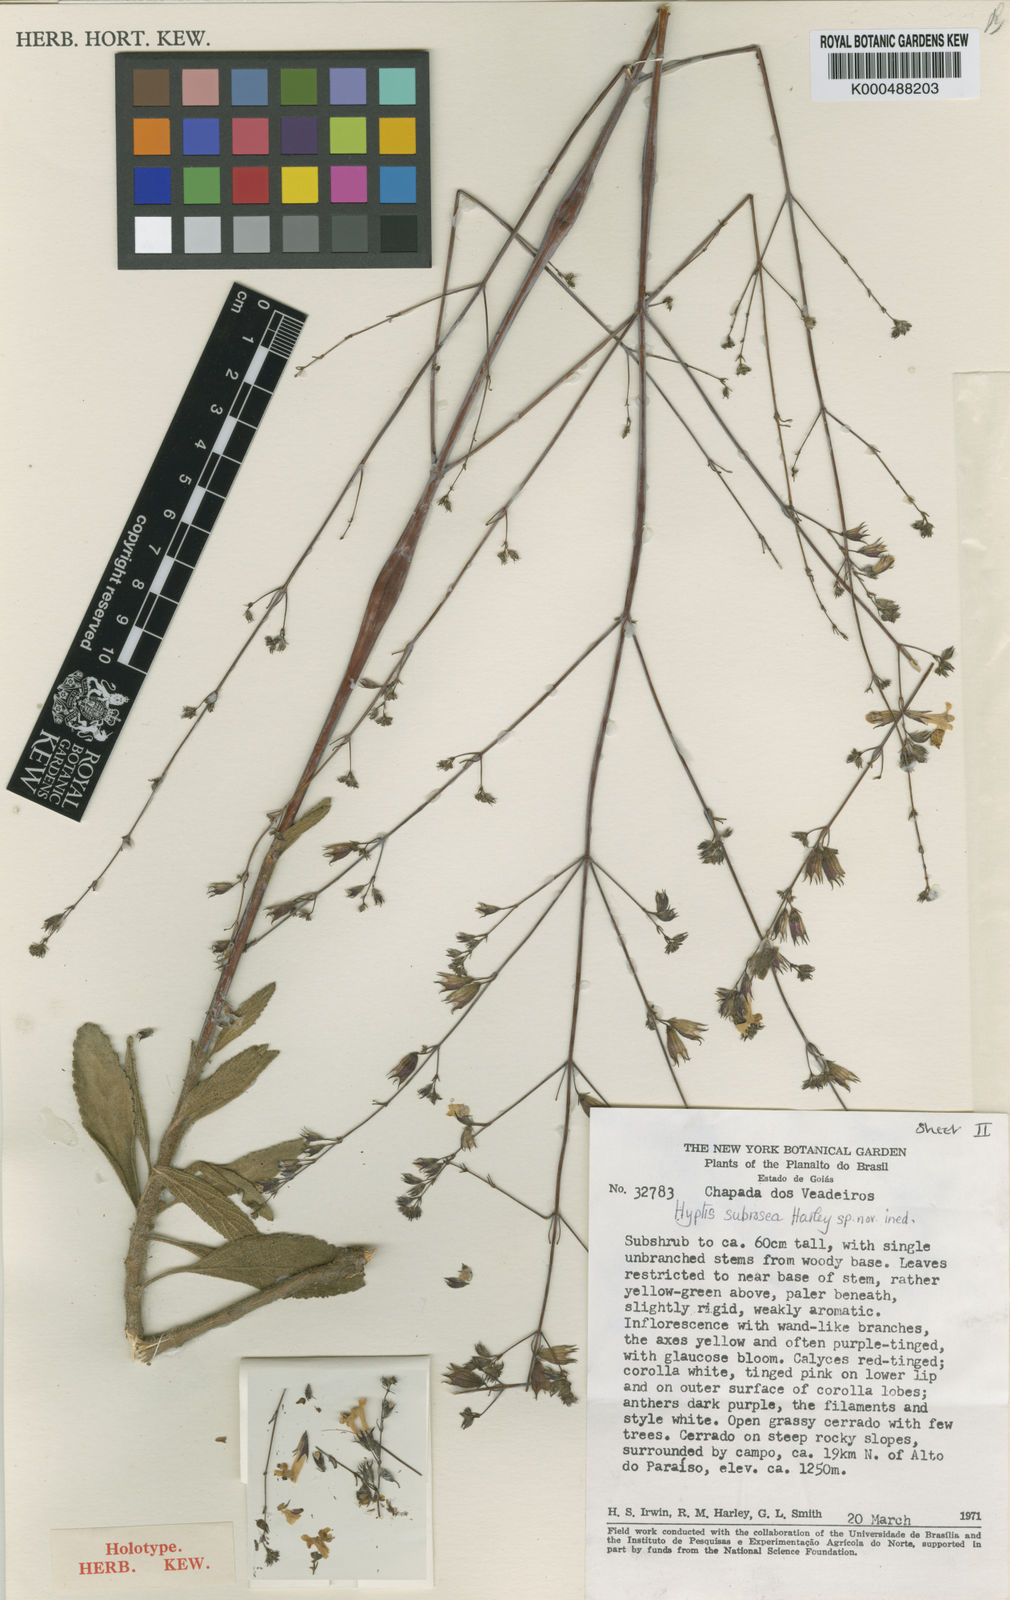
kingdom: Plantae
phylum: Tracheophyta
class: Magnoliopsida
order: Lamiales
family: Lamiaceae
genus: Hypenia
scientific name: Hypenia subrosea
